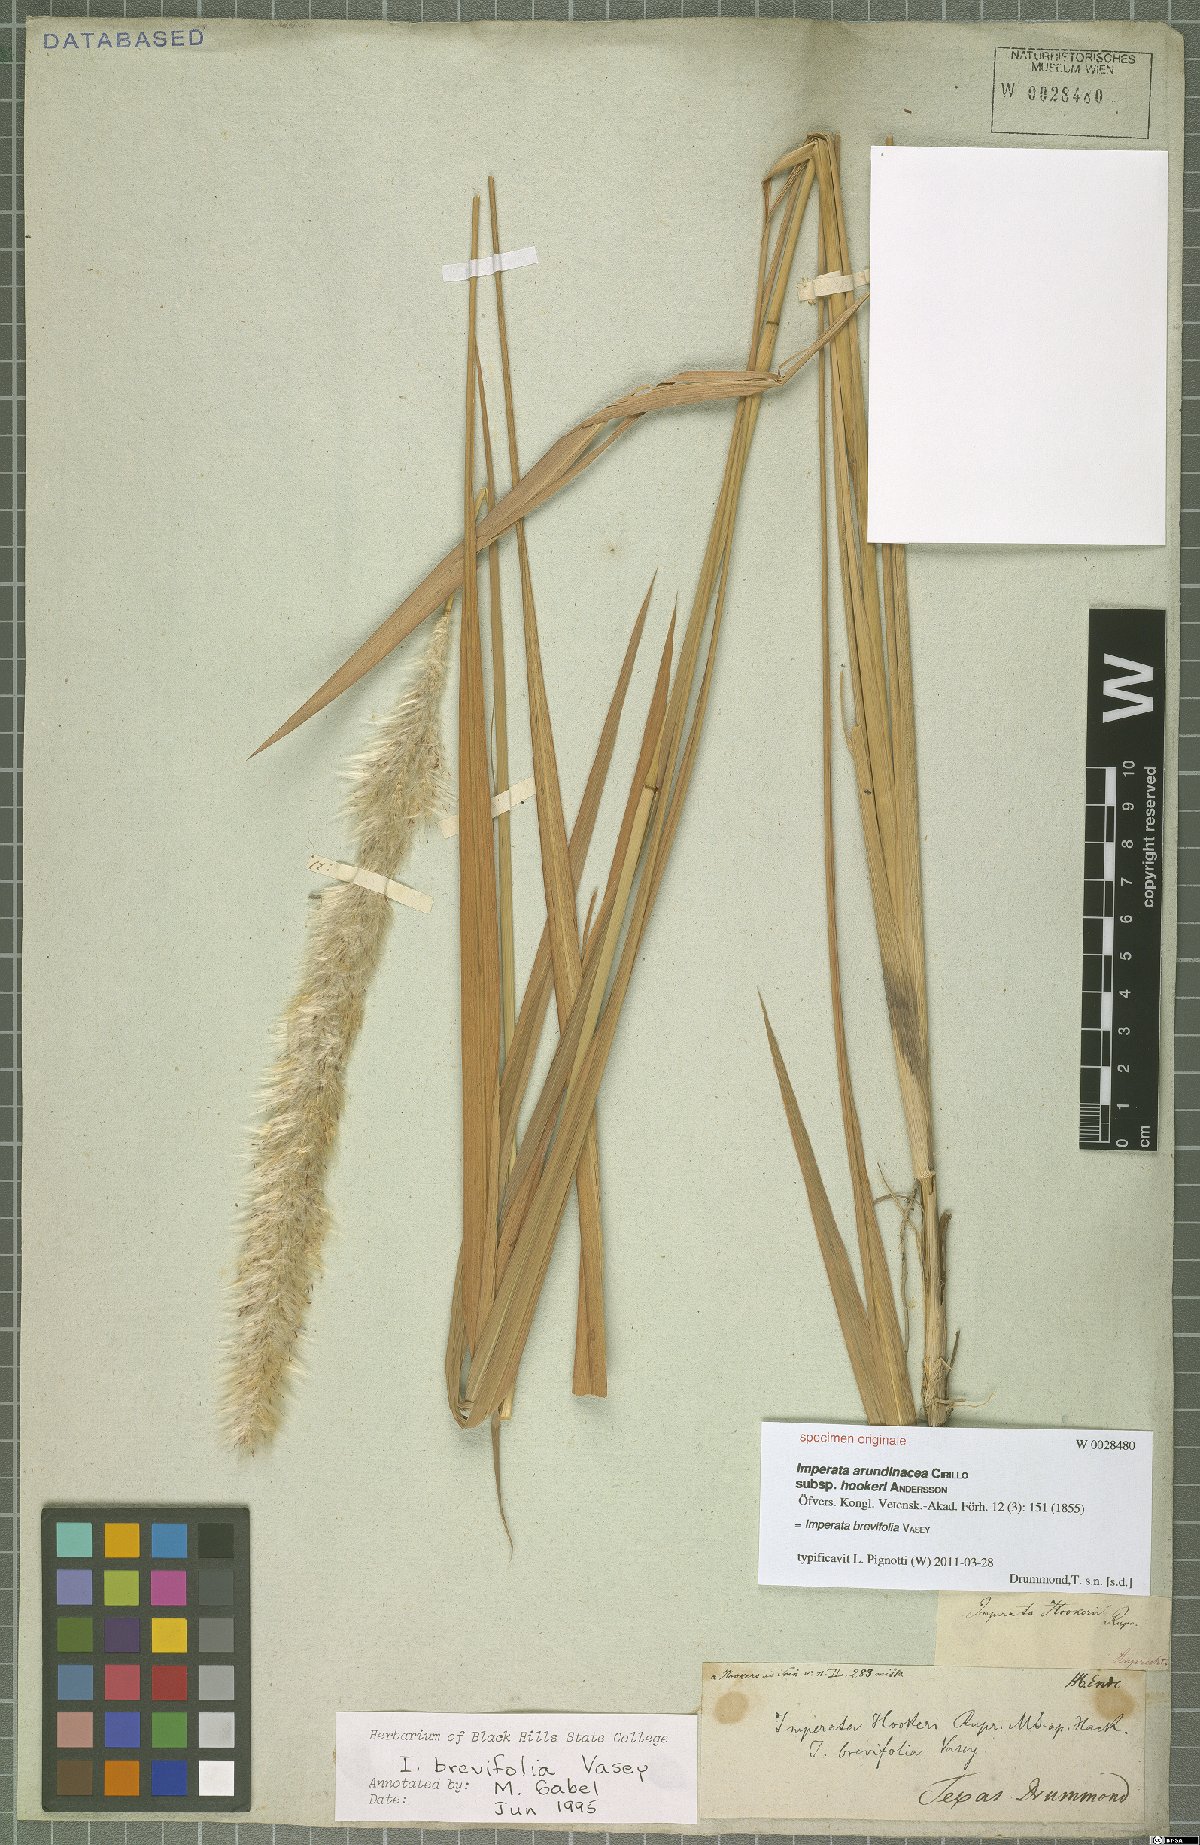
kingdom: Plantae
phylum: Tracheophyta
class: Liliopsida
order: Poales
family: Poaceae
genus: Imperata
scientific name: Imperata brevifolia
